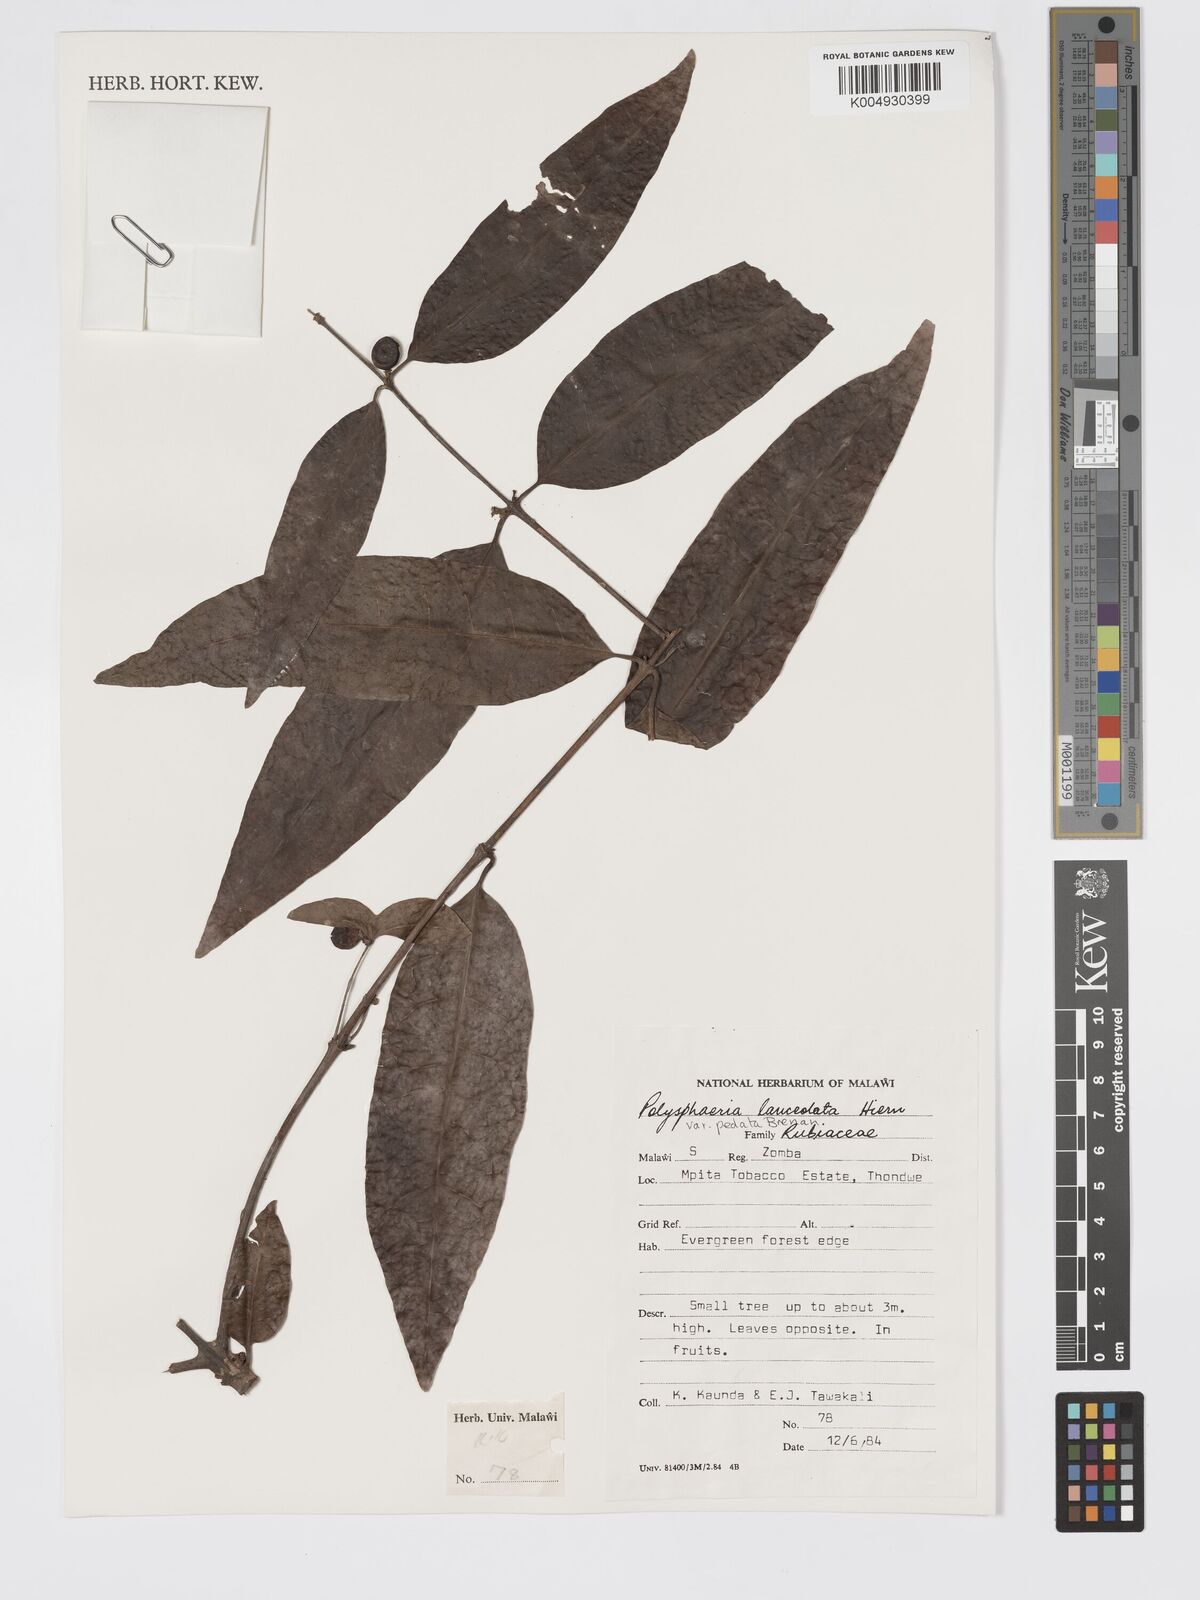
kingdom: Plantae
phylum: Tracheophyta
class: Magnoliopsida
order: Gentianales
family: Rubiaceae
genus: Polysphaeria
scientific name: Polysphaeria lanceolata
